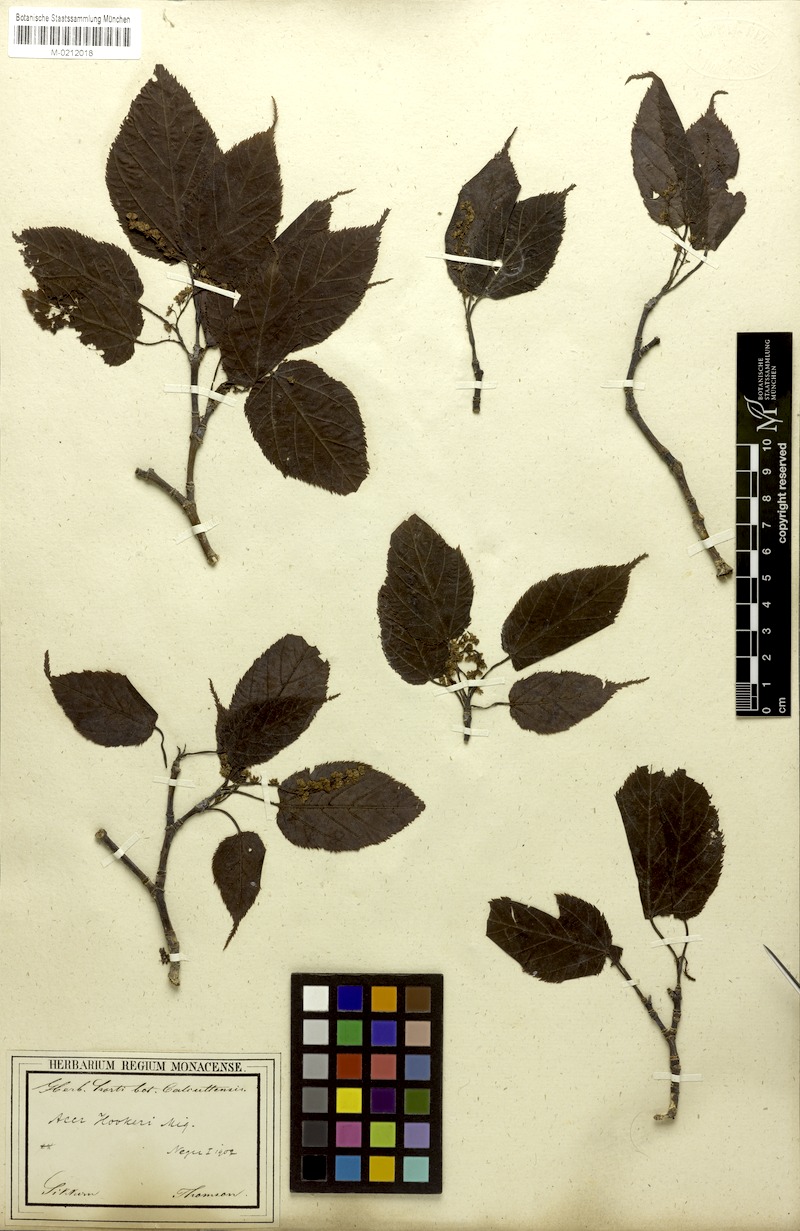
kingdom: Plantae
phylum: Tracheophyta
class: Magnoliopsida
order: Sapindales
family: Sapindaceae
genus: Acer
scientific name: Acer sikkimense
